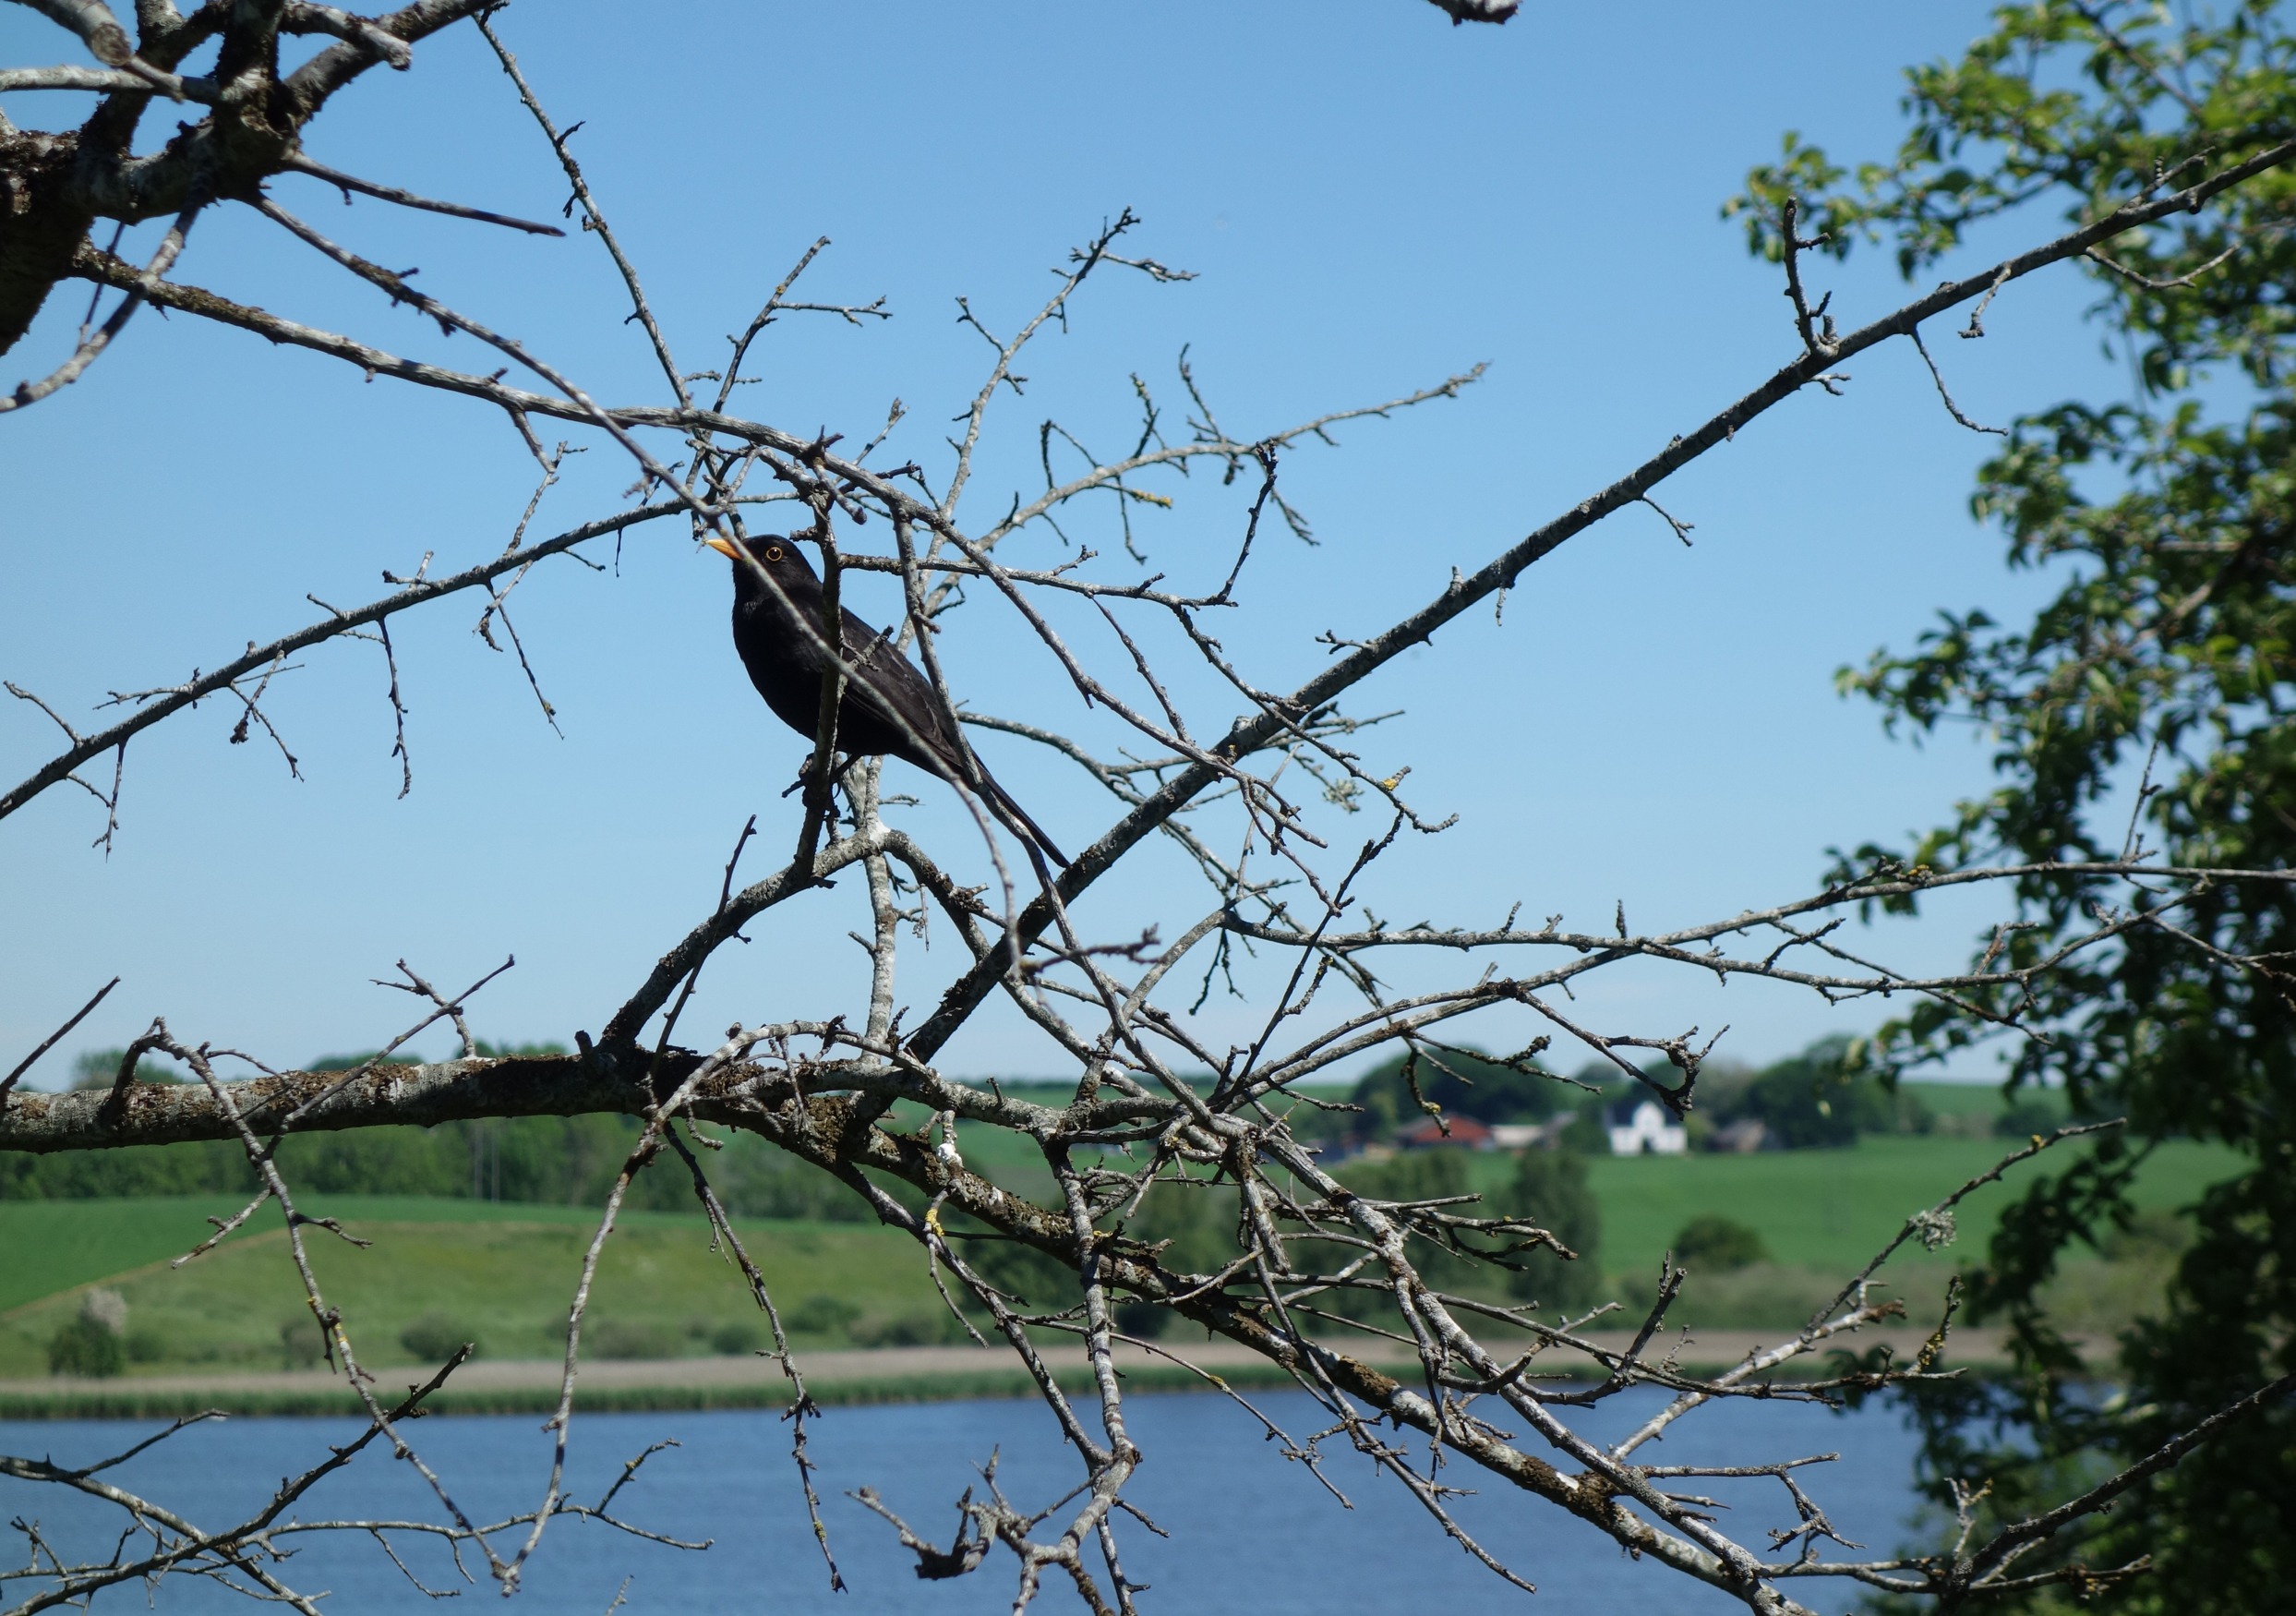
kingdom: Animalia
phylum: Chordata
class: Aves
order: Passeriformes
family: Turdidae
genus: Turdus
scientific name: Turdus merula
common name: Solsort
